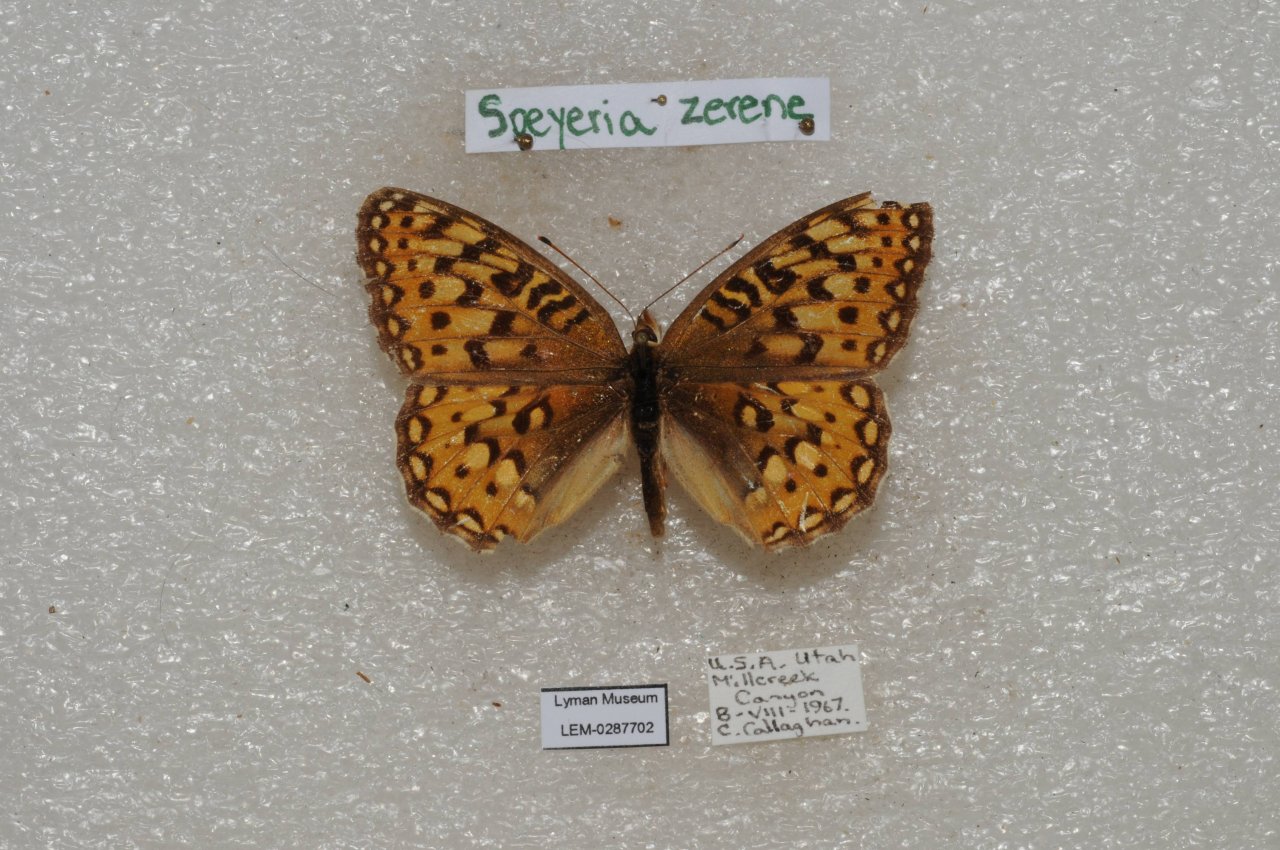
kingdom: Animalia
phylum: Arthropoda
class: Insecta
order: Lepidoptera
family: Nymphalidae
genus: Speyeria
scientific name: Speyeria zerene
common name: Zerene Fritillary
